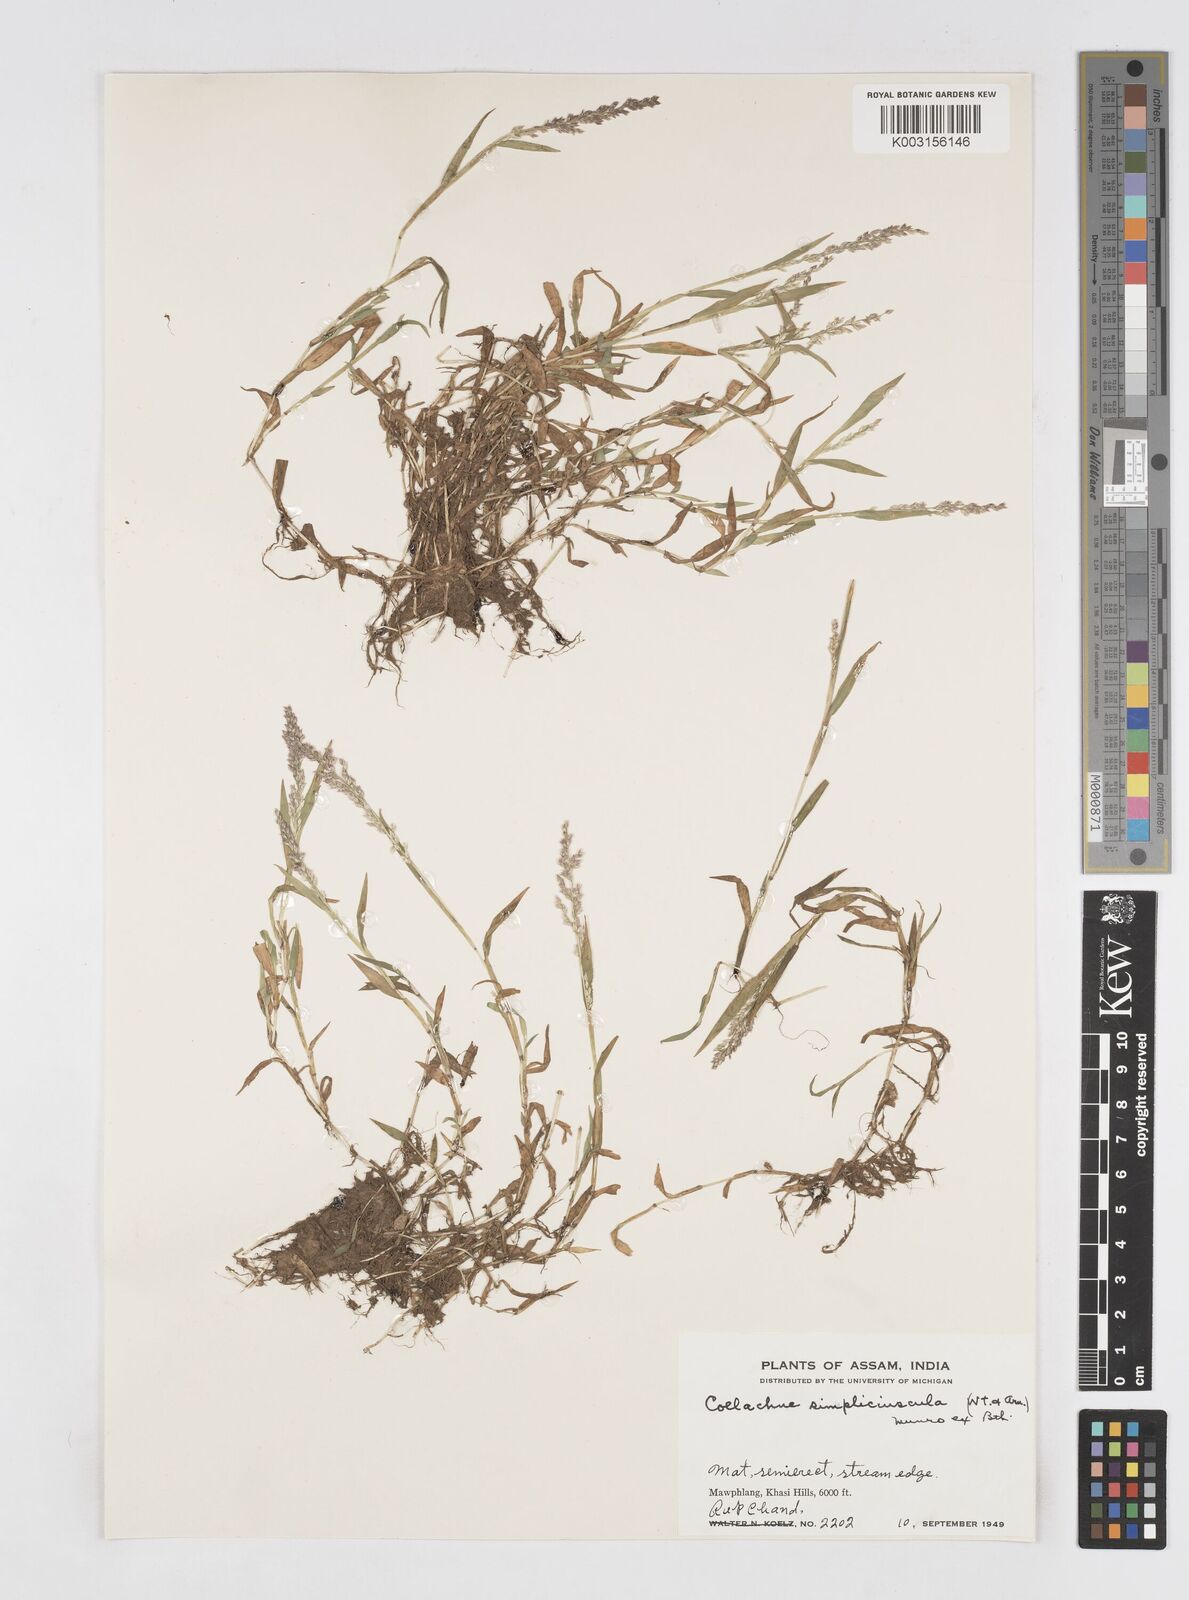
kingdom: Plantae
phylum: Tracheophyta
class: Liliopsida
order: Poales
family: Poaceae
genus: Coelachne
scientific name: Coelachne simpliciuscula
